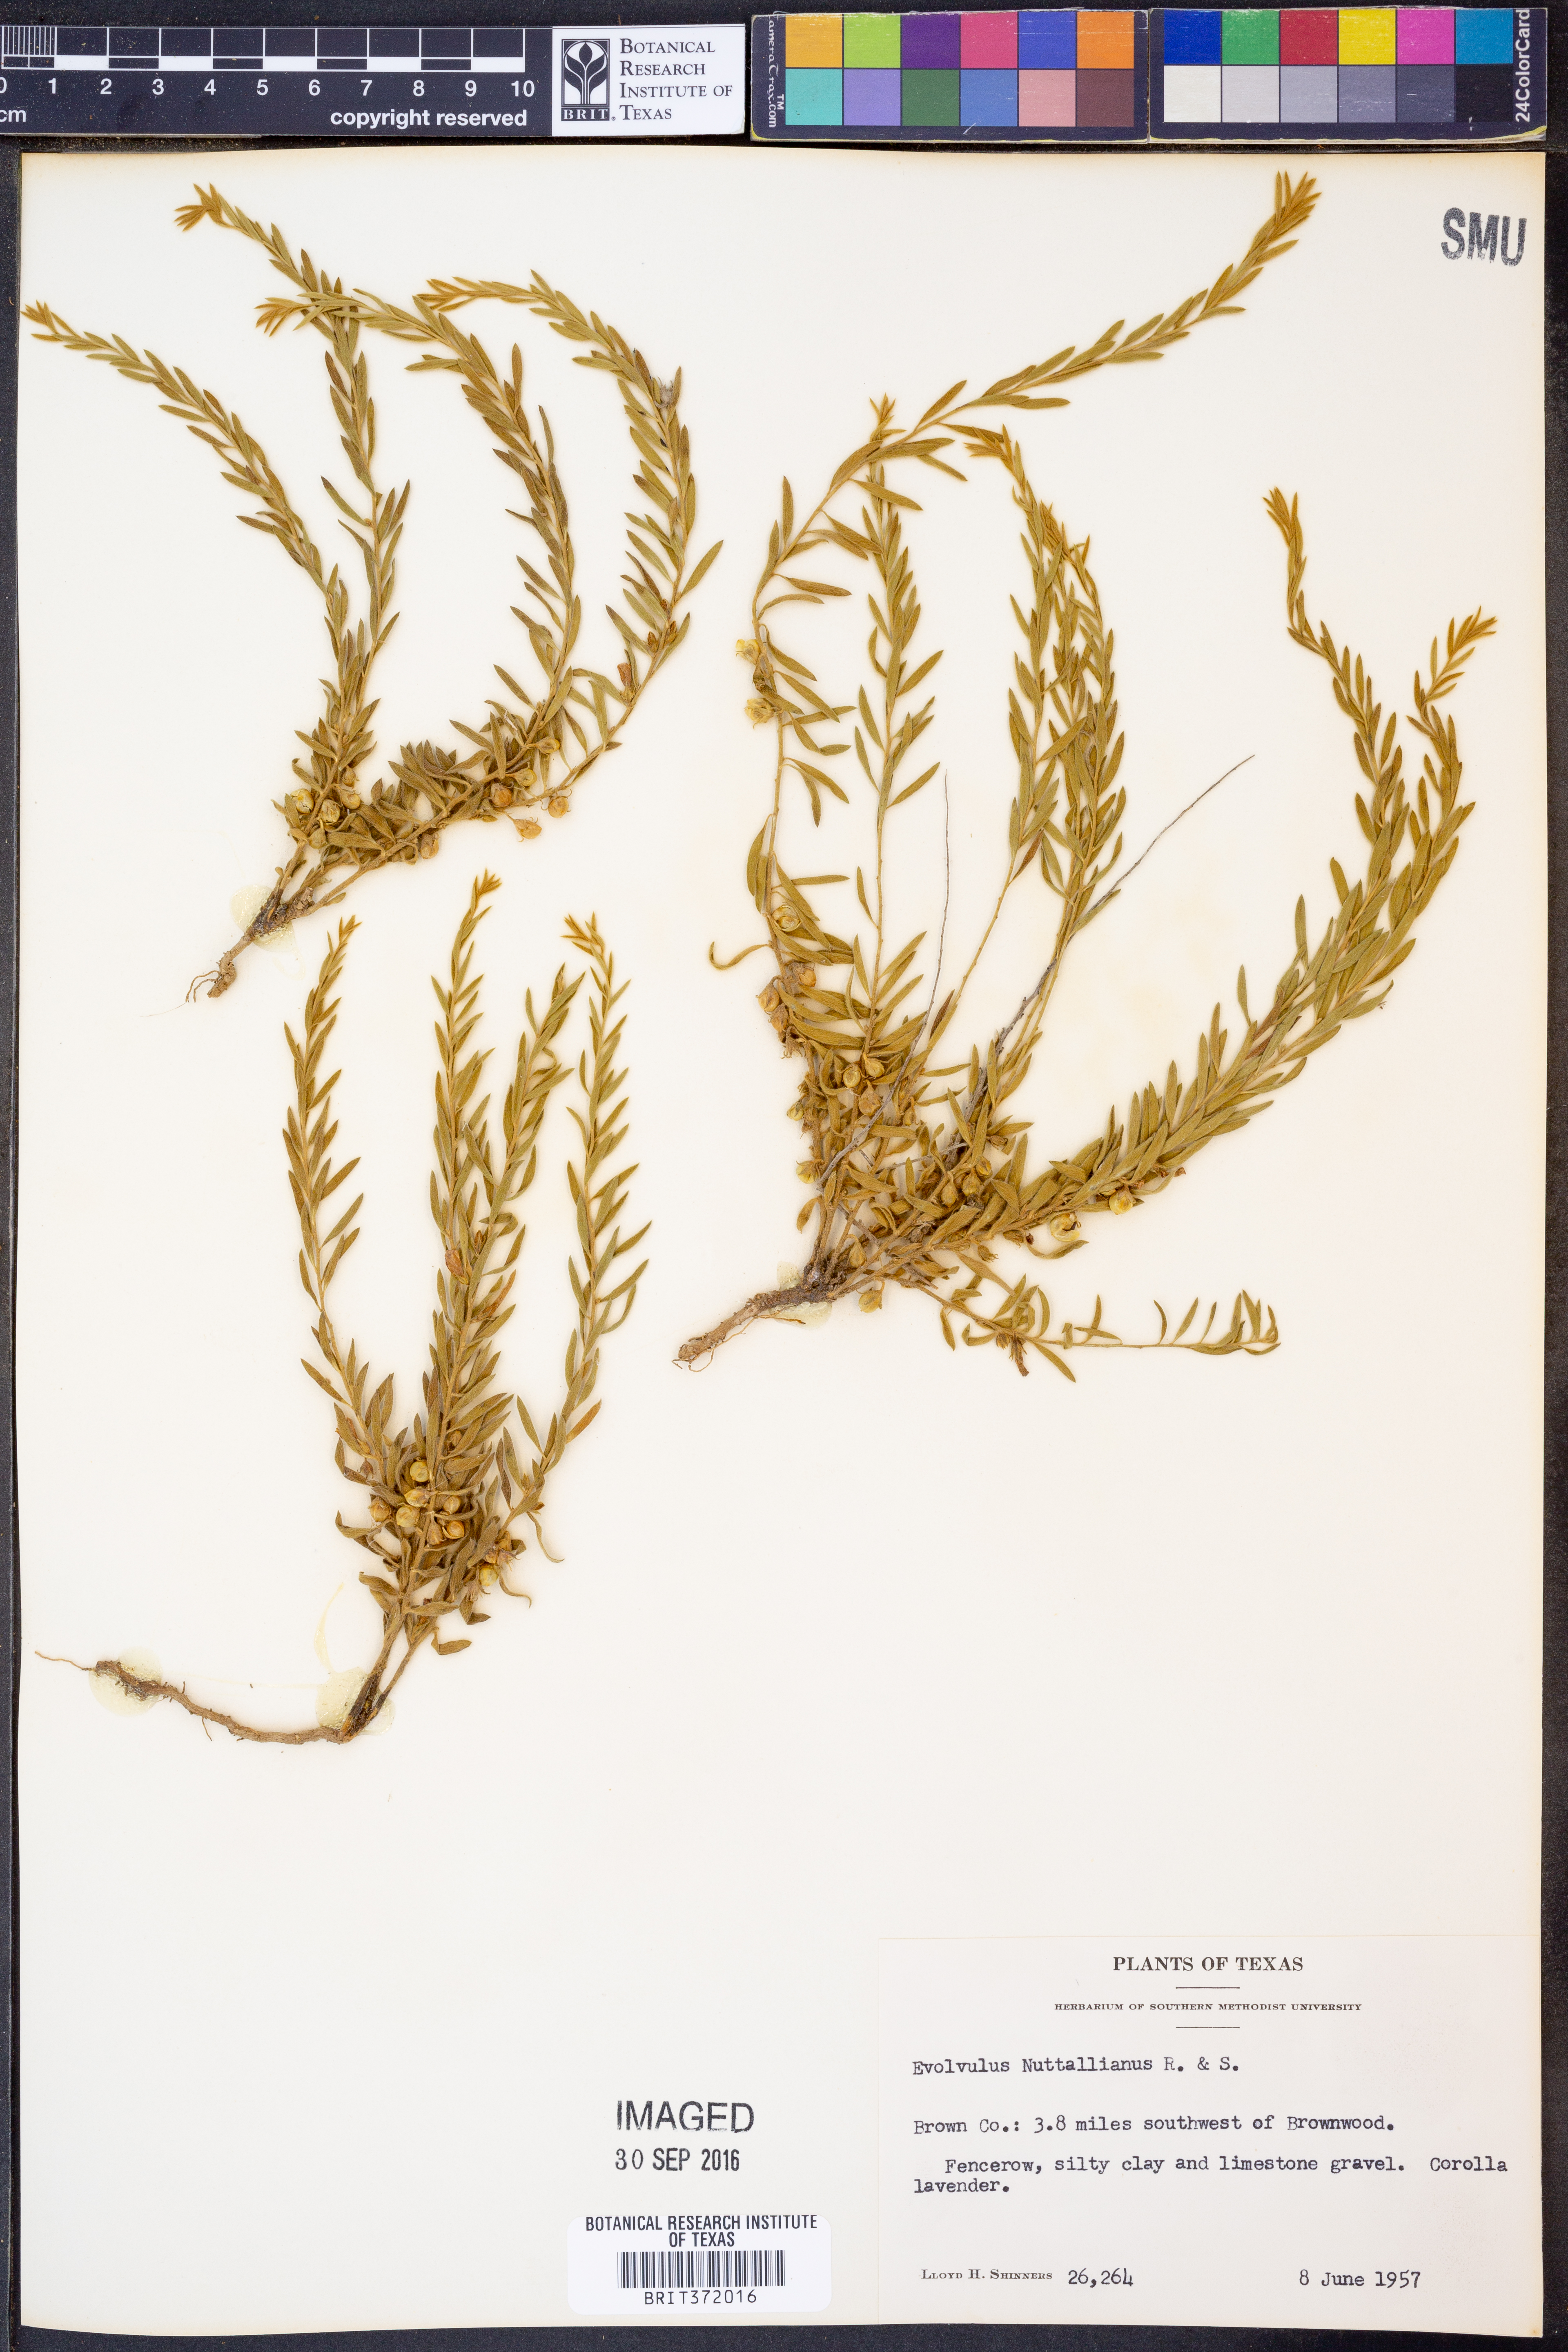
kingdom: Plantae
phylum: Tracheophyta
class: Magnoliopsida
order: Solanales
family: Convolvulaceae
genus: Evolvulus
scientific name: Evolvulus nuttallianus
